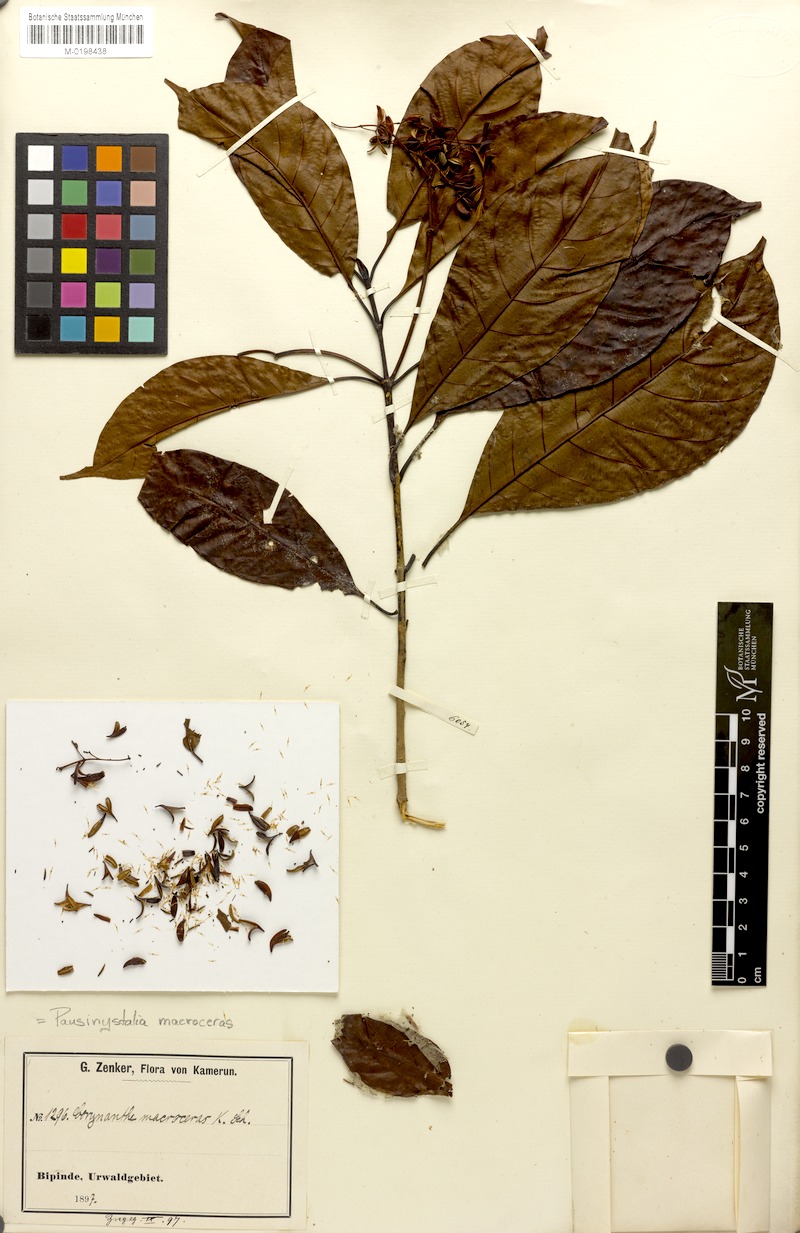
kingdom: Plantae
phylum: Tracheophyta
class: Magnoliopsida
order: Gentianales
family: Rubiaceae
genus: Corynanthe
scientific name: Corynanthe pachyceras
